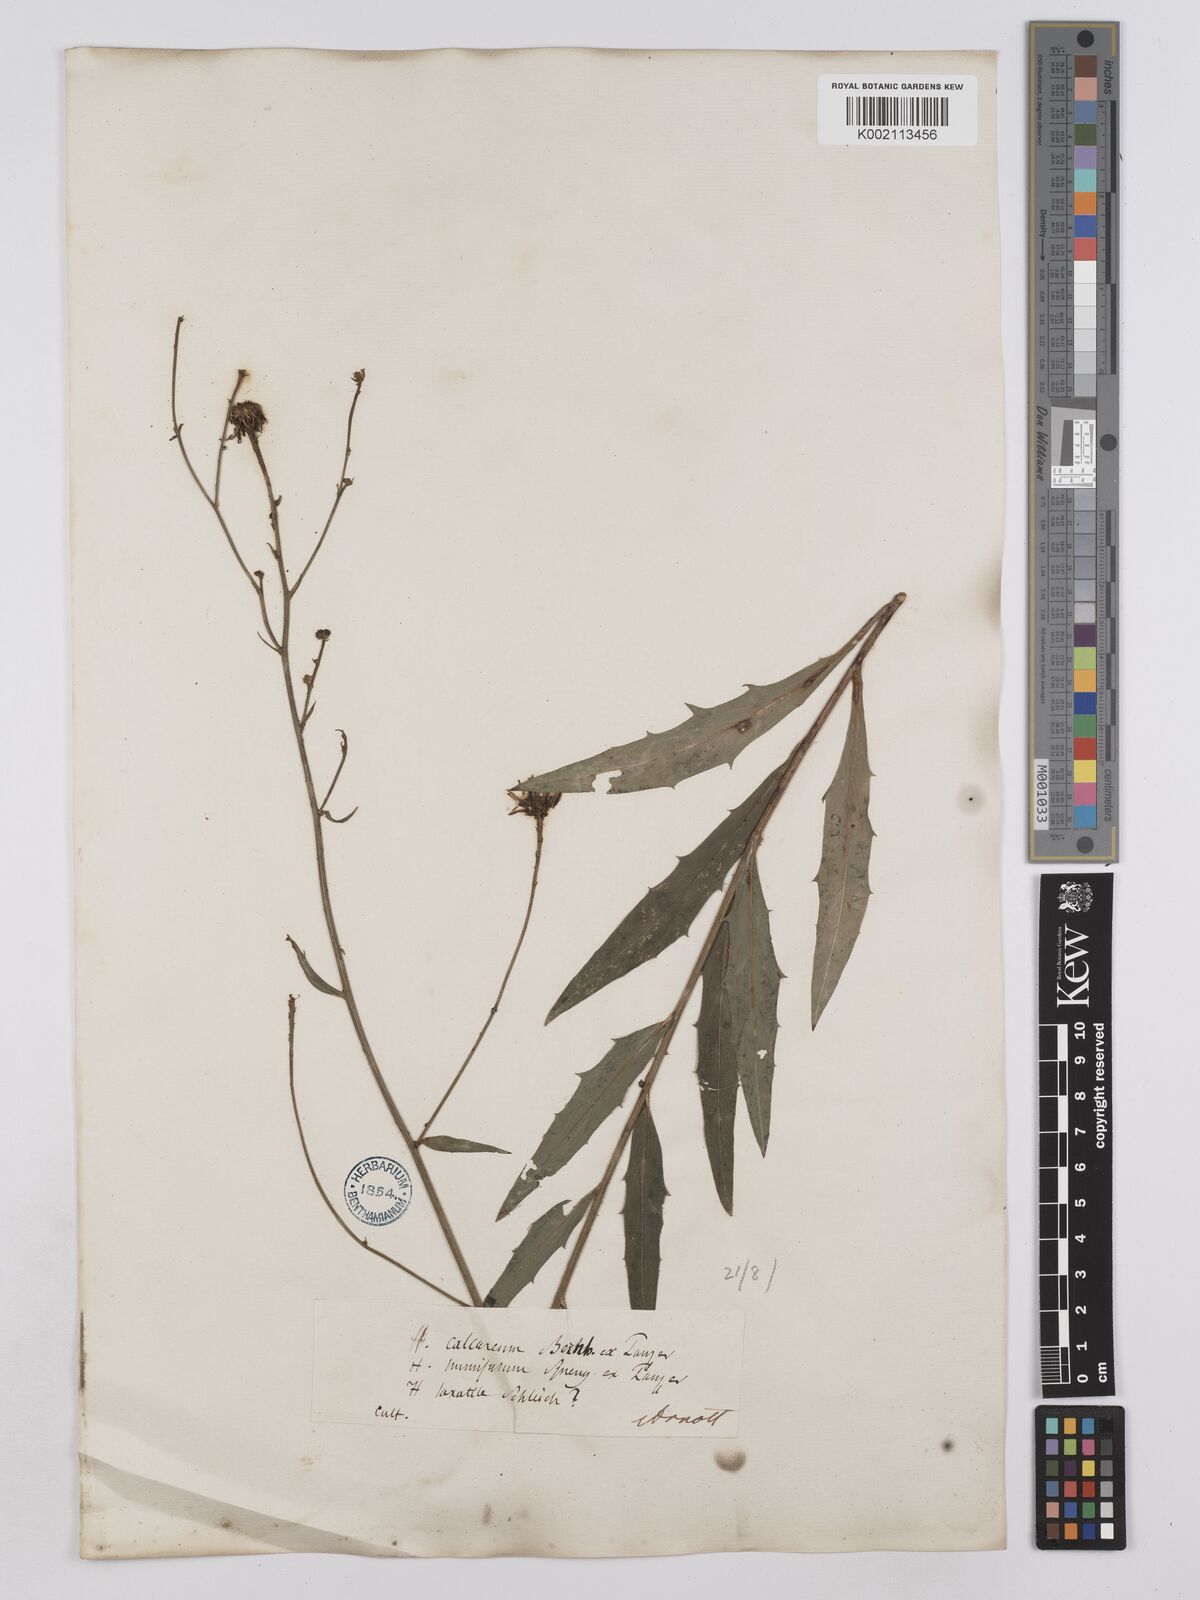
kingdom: Plantae
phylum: Tracheophyta
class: Magnoliopsida
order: Asterales
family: Asteraceae
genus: Hieracium
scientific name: Hieracium calcareum
